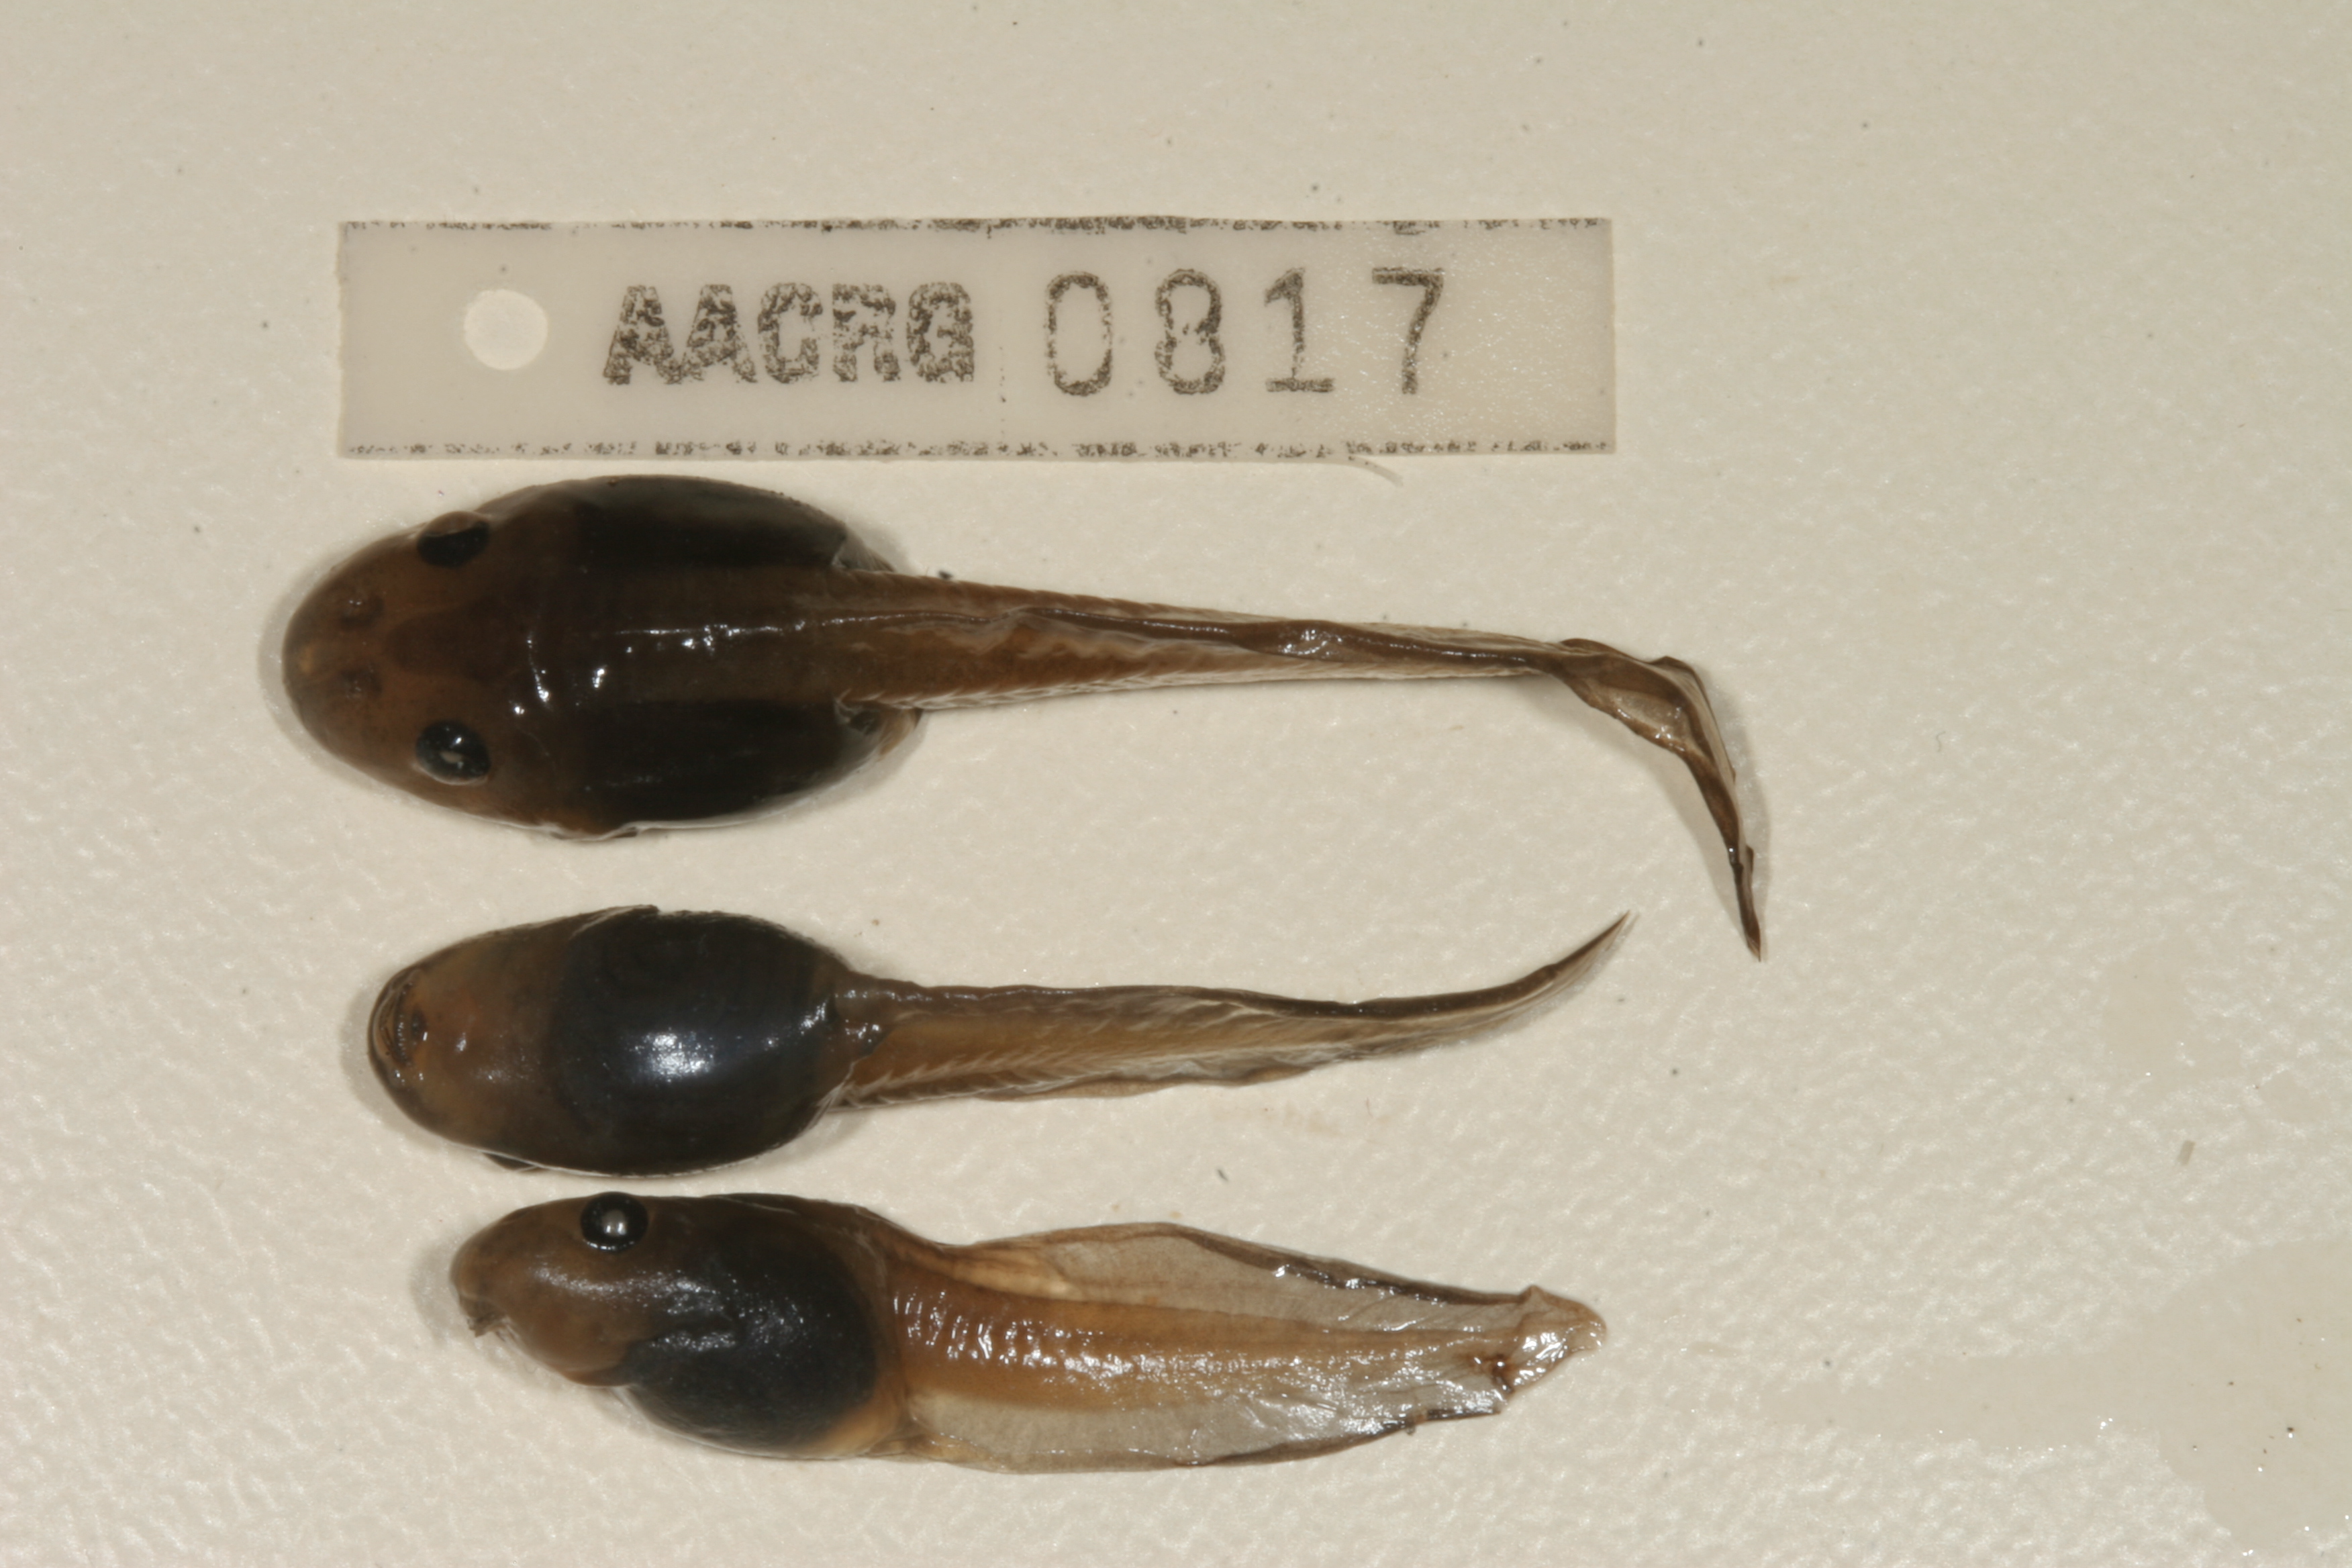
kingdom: Animalia
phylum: Chordata
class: Amphibia
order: Anura
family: Pyxicephalidae
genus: Strongylopus
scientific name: Strongylopus grayii
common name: Gray's stream frog
